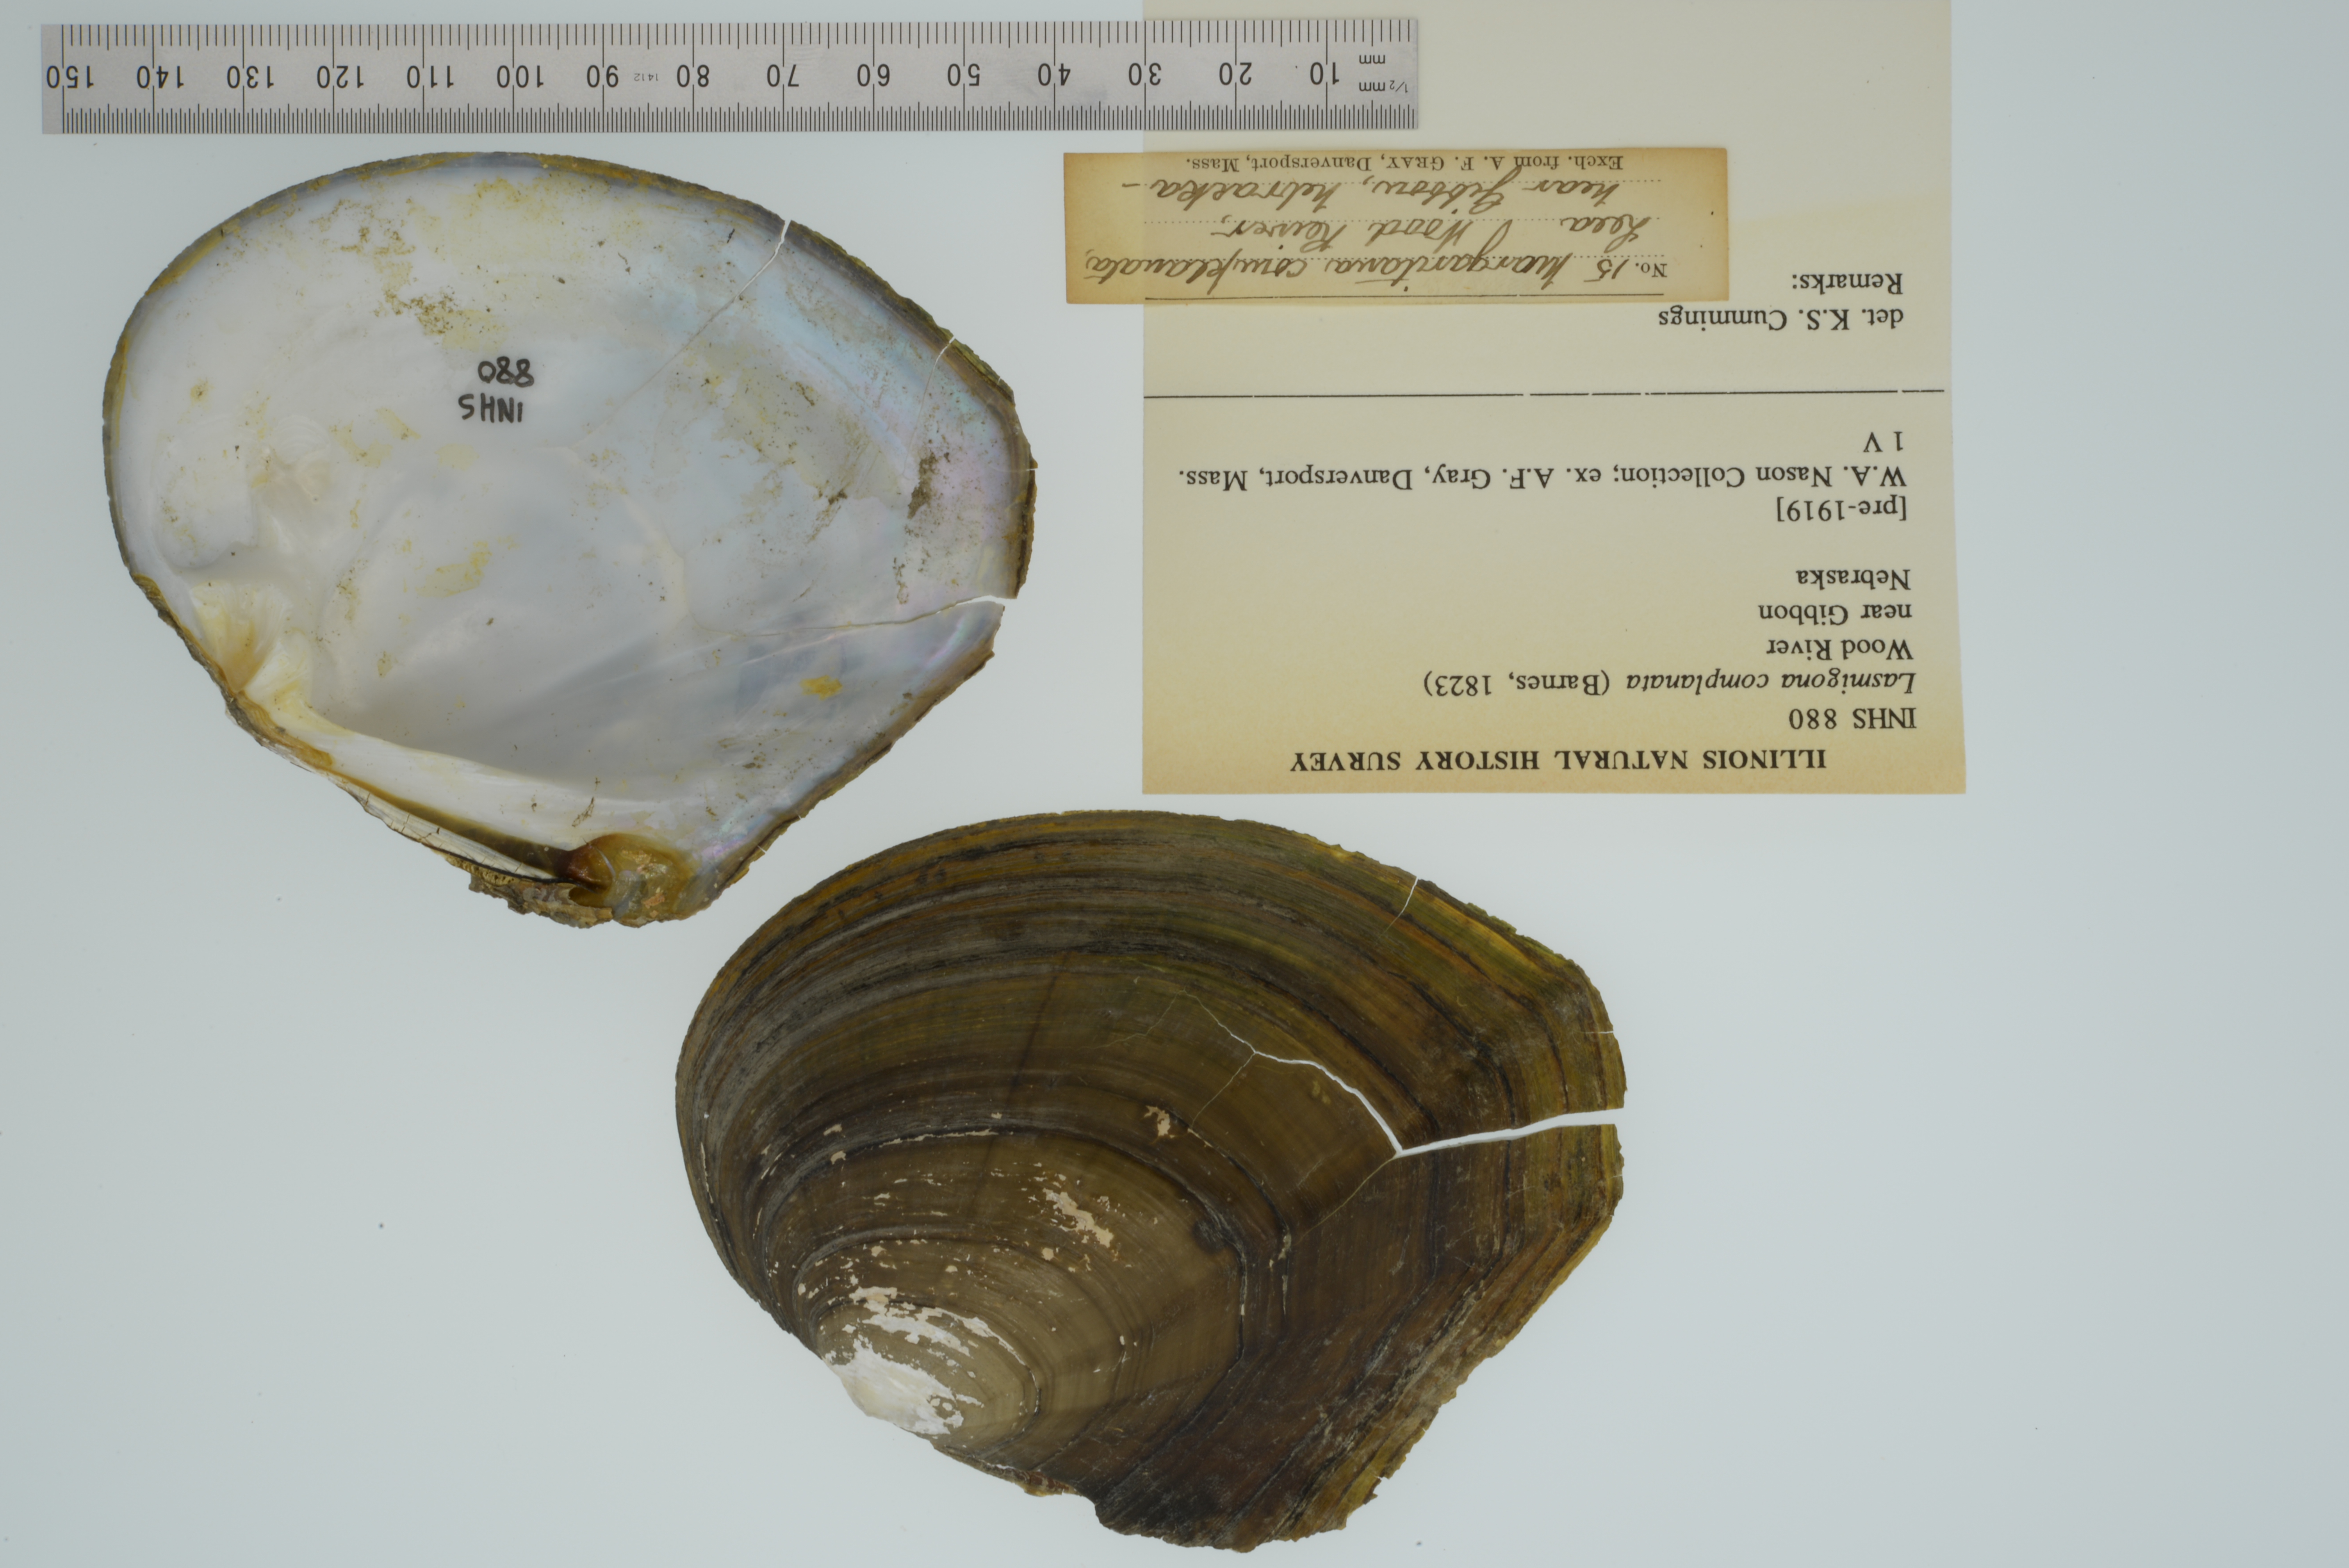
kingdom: Animalia
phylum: Mollusca
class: Bivalvia
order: Unionida
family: Unionidae
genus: Lasmigona
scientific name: Lasmigona complanata
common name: White heelsplitter
